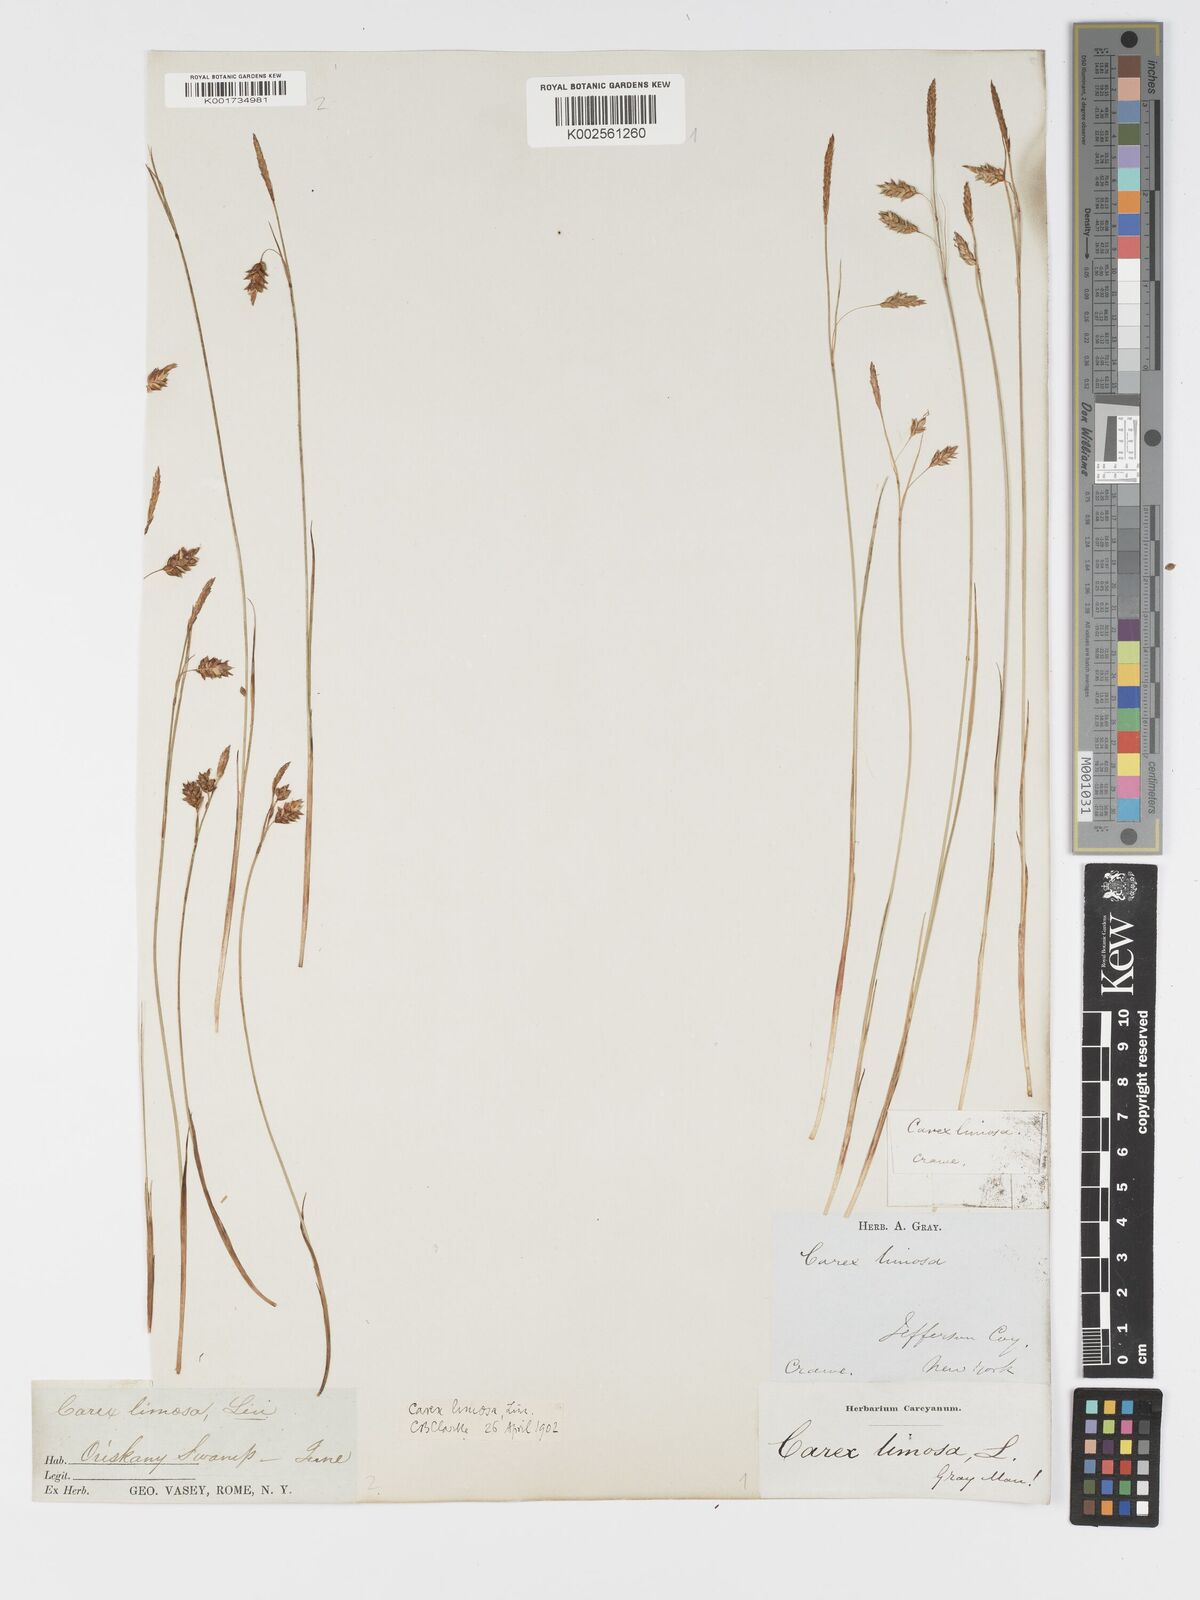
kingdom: Plantae
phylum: Tracheophyta
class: Liliopsida
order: Poales
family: Cyperaceae
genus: Carex
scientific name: Carex limosa
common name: Bog sedge
